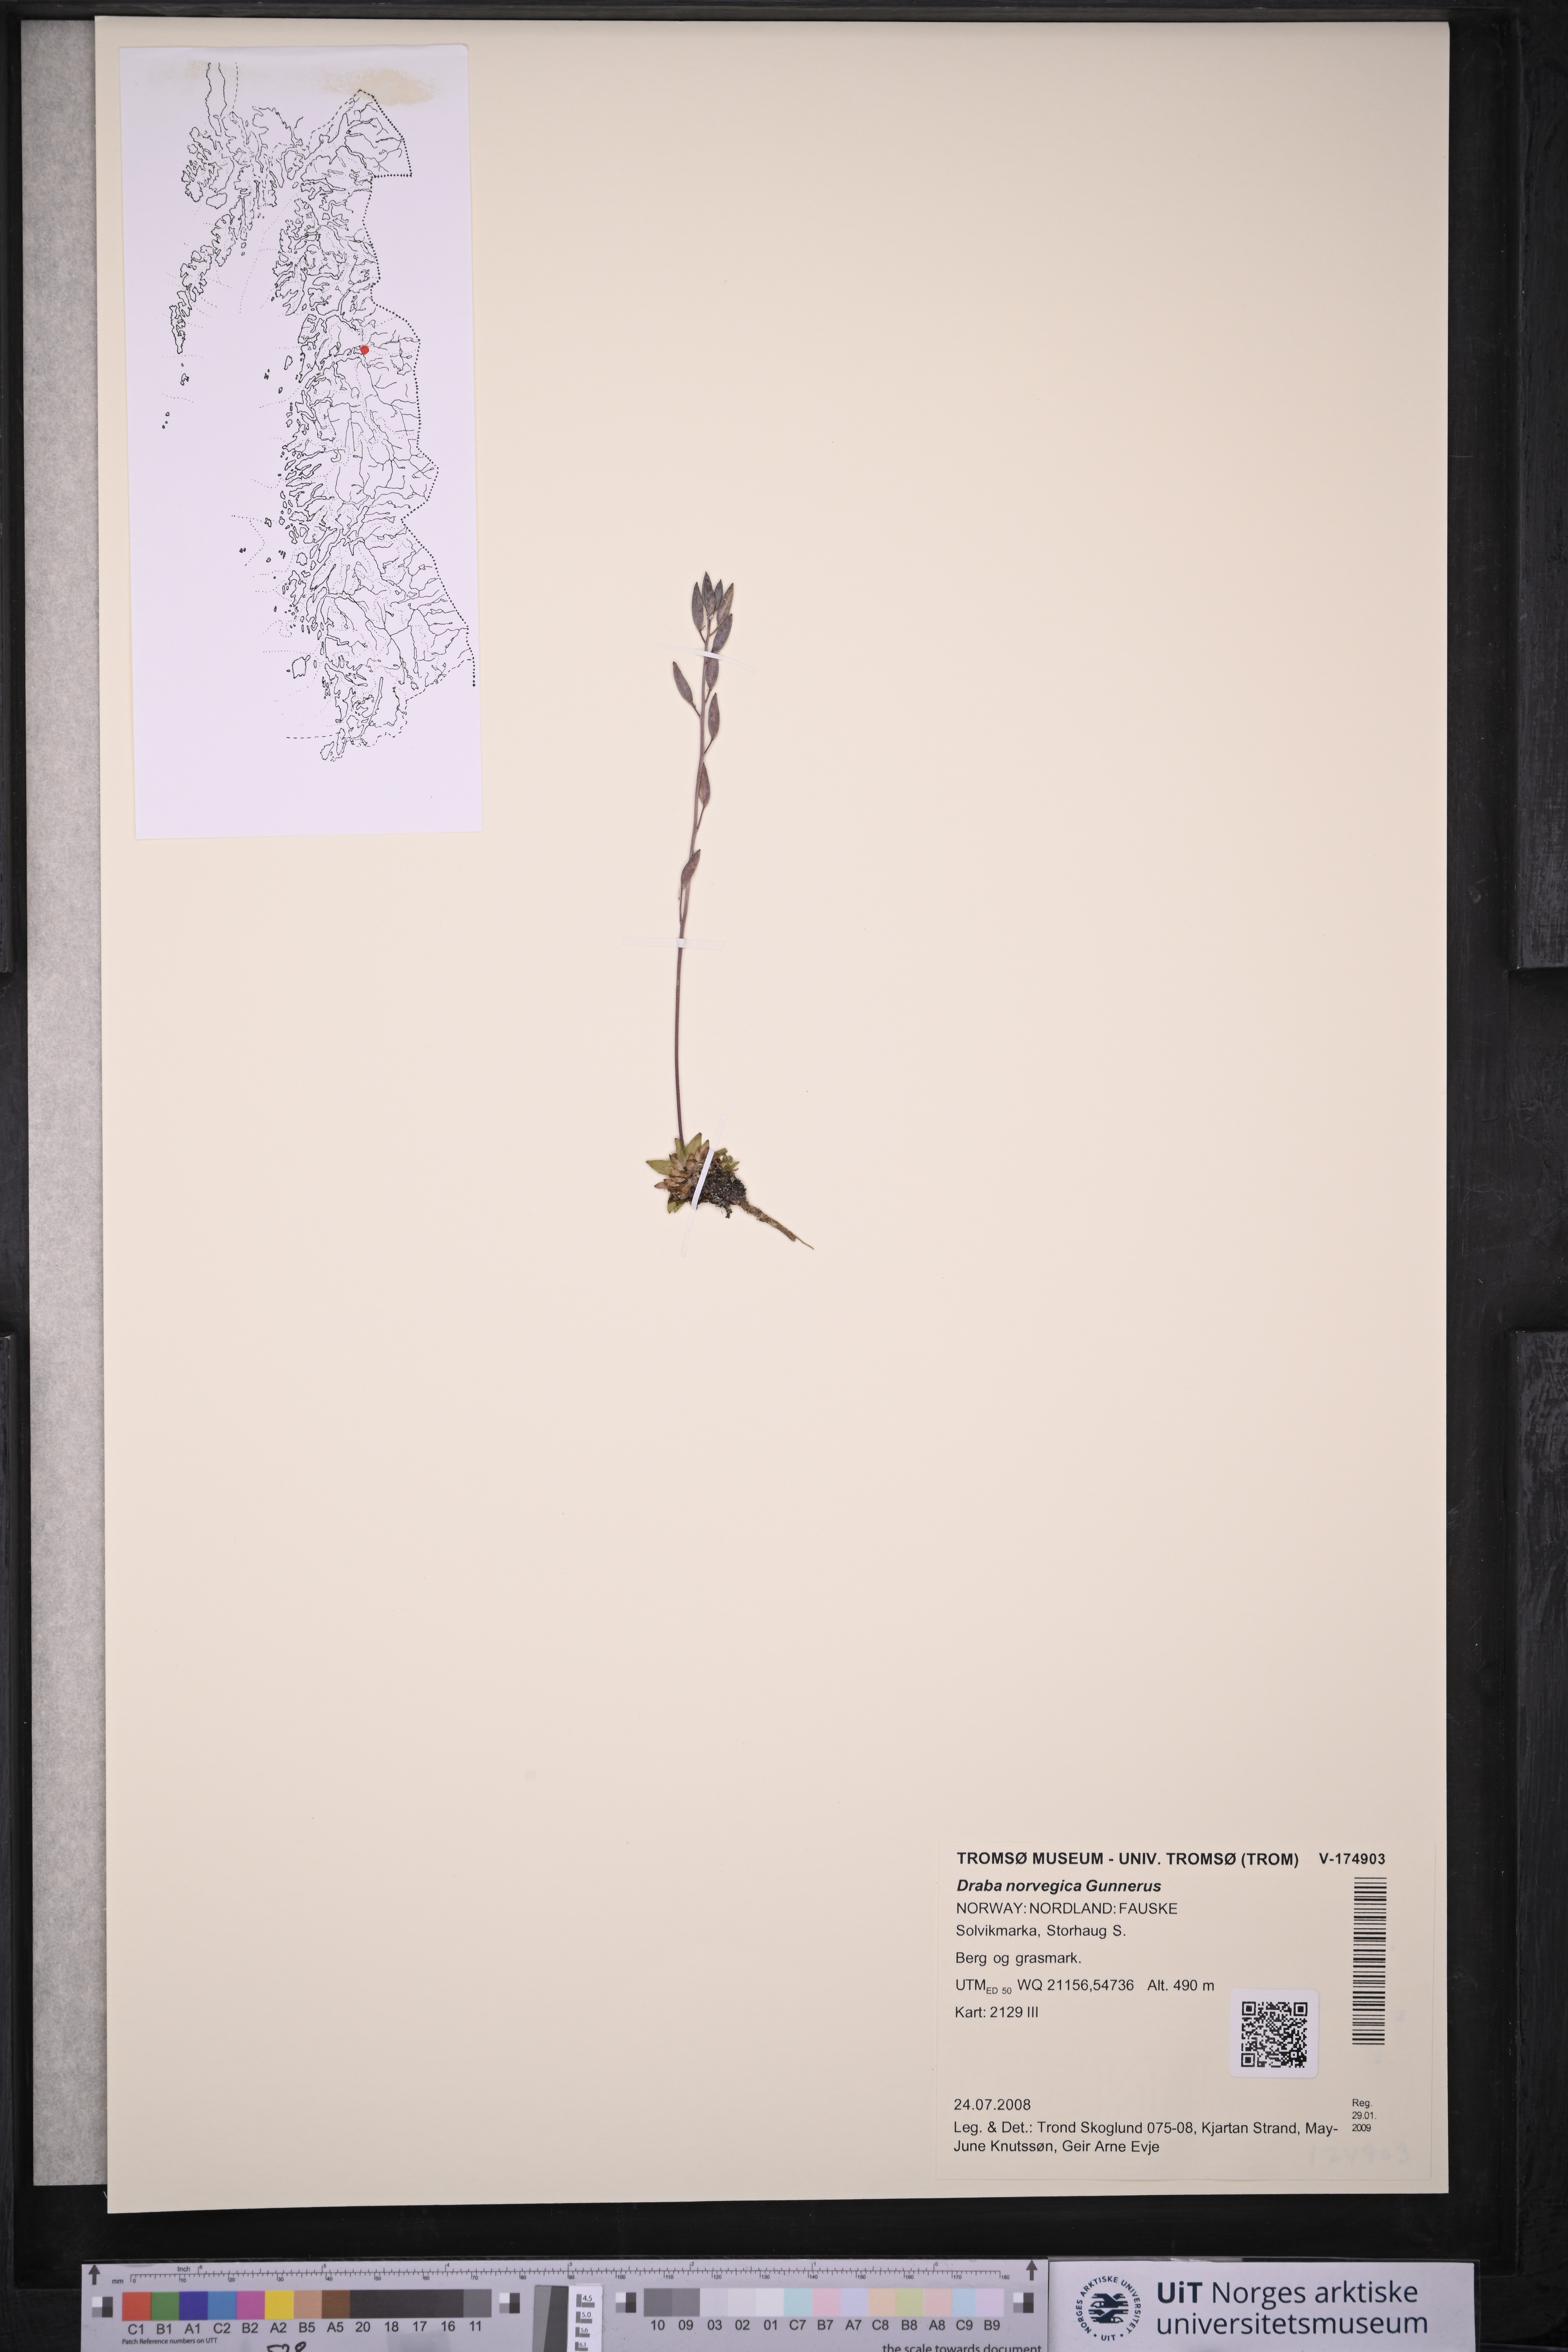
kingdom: Plantae
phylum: Tracheophyta
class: Magnoliopsida
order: Brassicales
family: Brassicaceae
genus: Draba
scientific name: Draba norvegica
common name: Rock whitlowgrass
